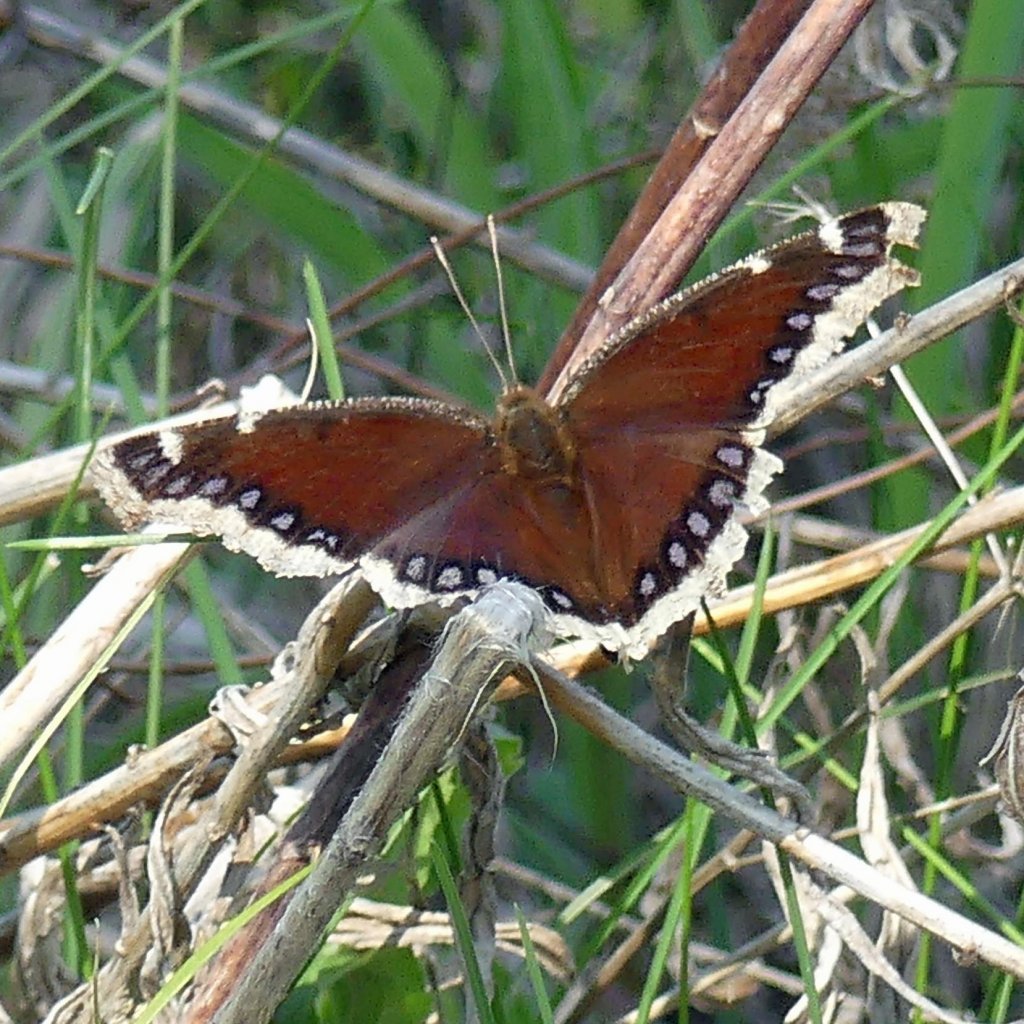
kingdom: Animalia
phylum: Arthropoda
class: Insecta
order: Lepidoptera
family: Nymphalidae
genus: Nymphalis
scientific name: Nymphalis antiopa
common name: Mourning Cloak
